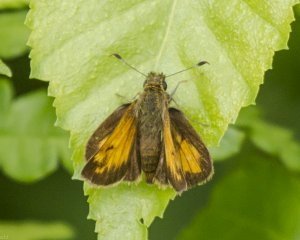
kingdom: Animalia
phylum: Arthropoda
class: Insecta
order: Lepidoptera
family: Hesperiidae
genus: Lon
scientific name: Lon hobomok
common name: Hobomok Skipper
